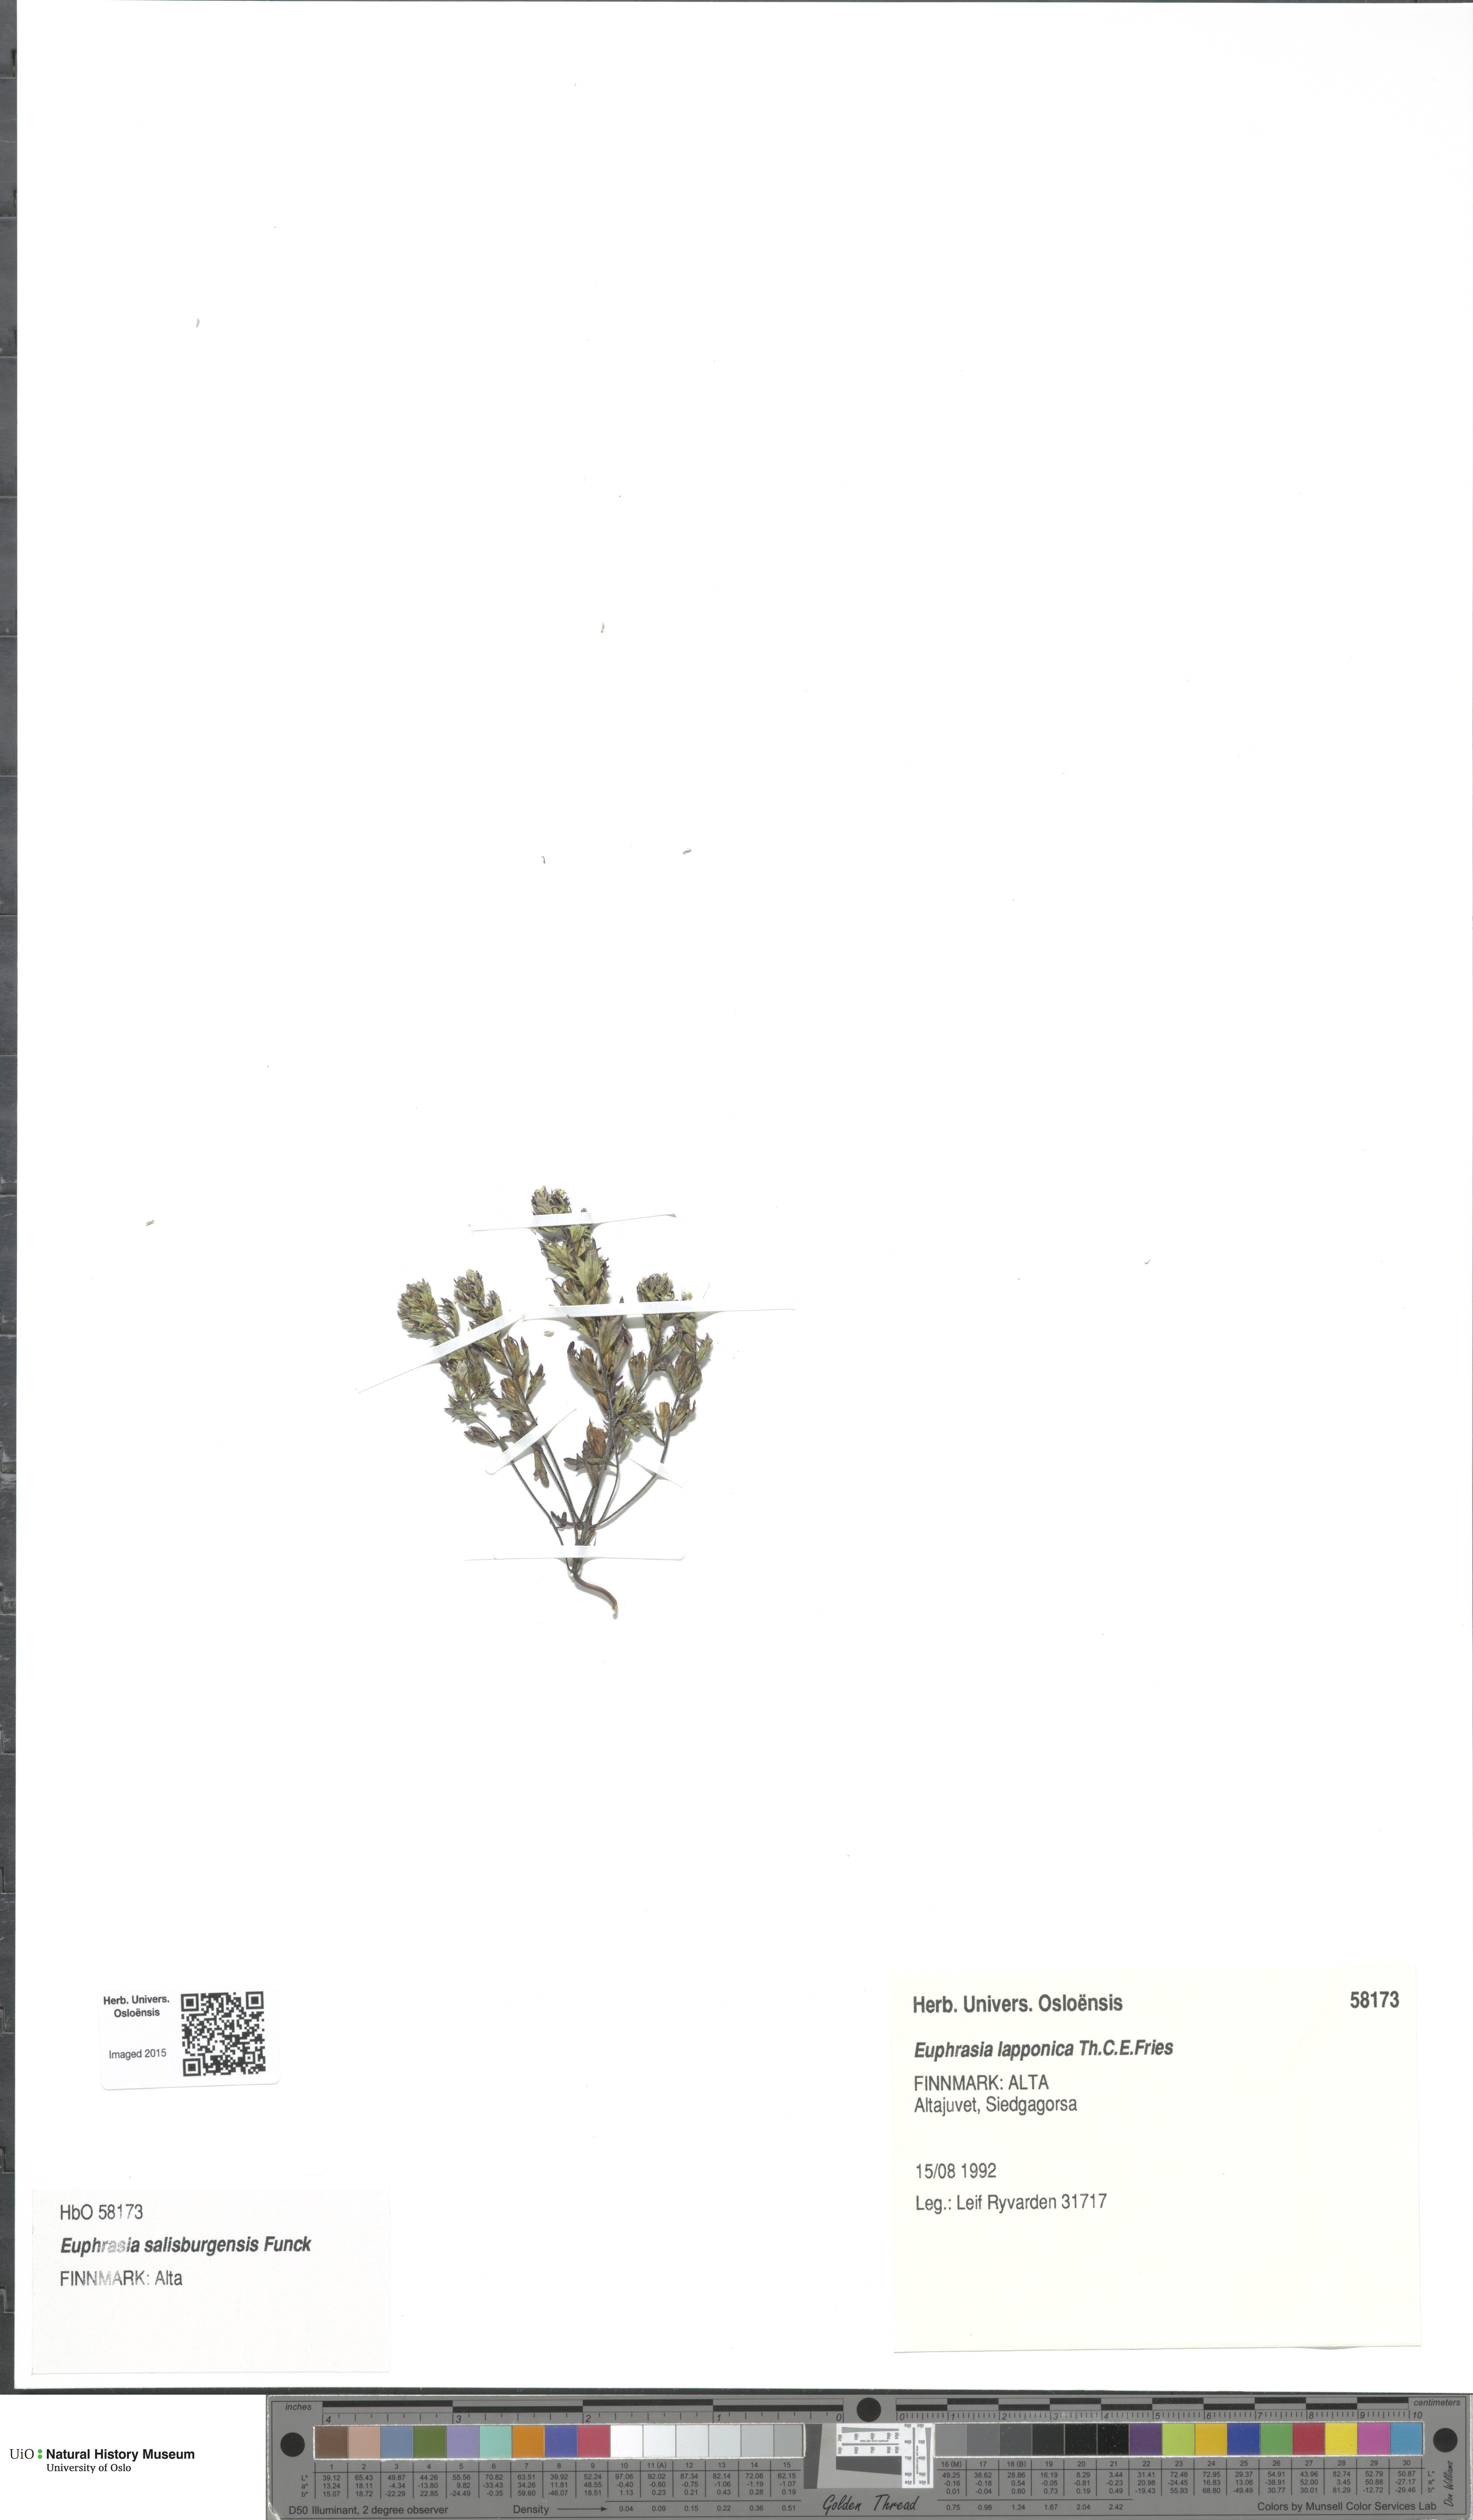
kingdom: Plantae
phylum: Tracheophyta
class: Magnoliopsida
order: Lamiales
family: Orobanchaceae
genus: Euphrasia
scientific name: Euphrasia salisburgensis
